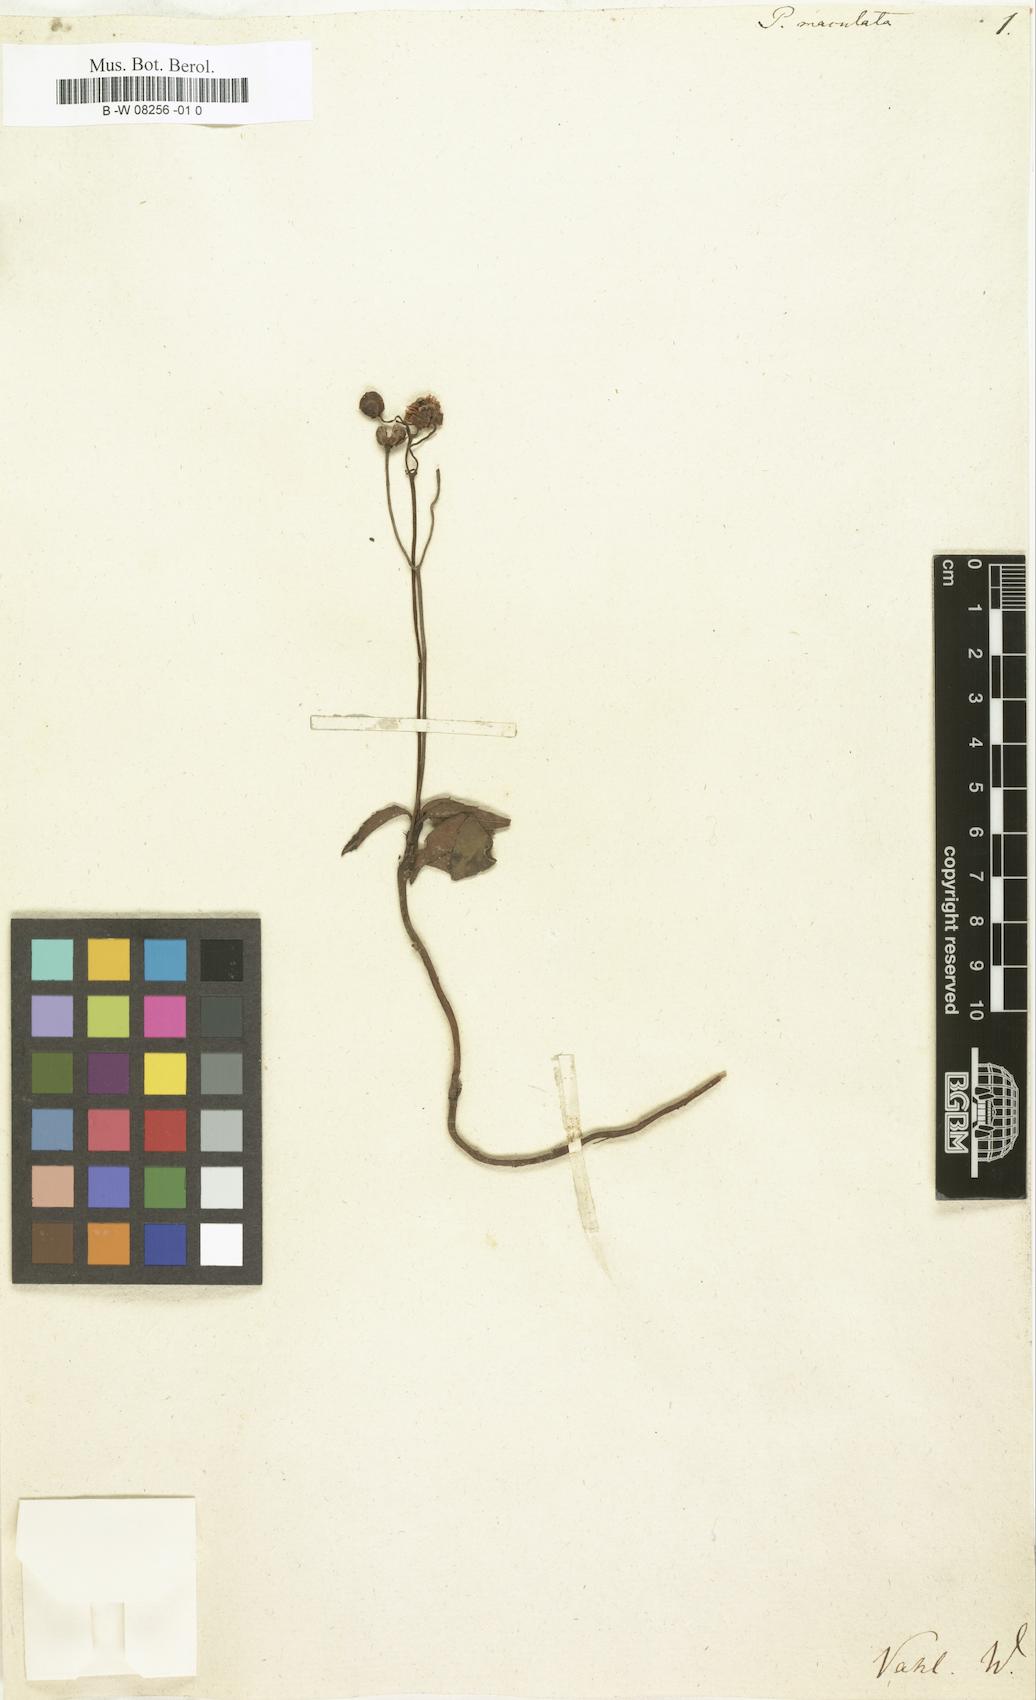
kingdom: Plantae
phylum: Tracheophyta
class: Magnoliopsida
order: Ericales
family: Ericaceae
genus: Chimaphila
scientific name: Chimaphila maculata
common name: Spotted pipsissewa
